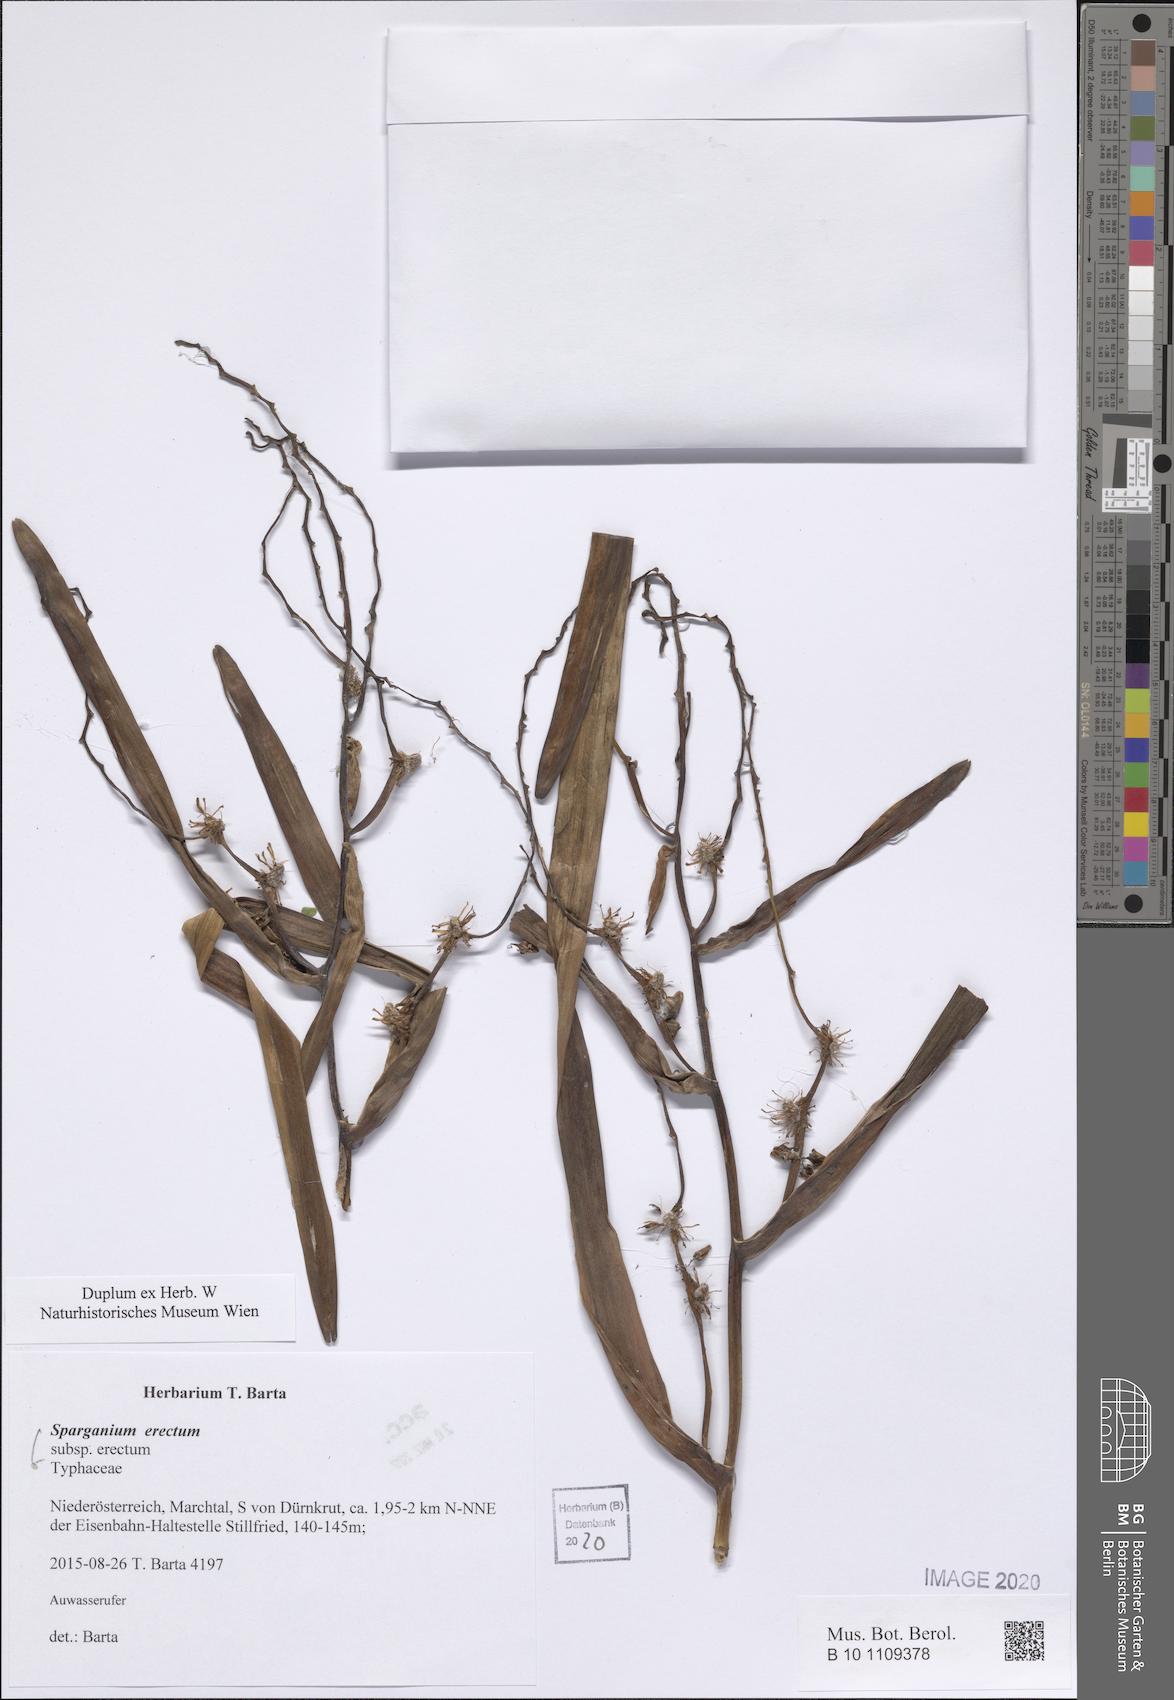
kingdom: Plantae
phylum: Tracheophyta
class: Liliopsida
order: Poales
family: Typhaceae
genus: Sparganium
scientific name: Sparganium erectum
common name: Branched bur-reed
